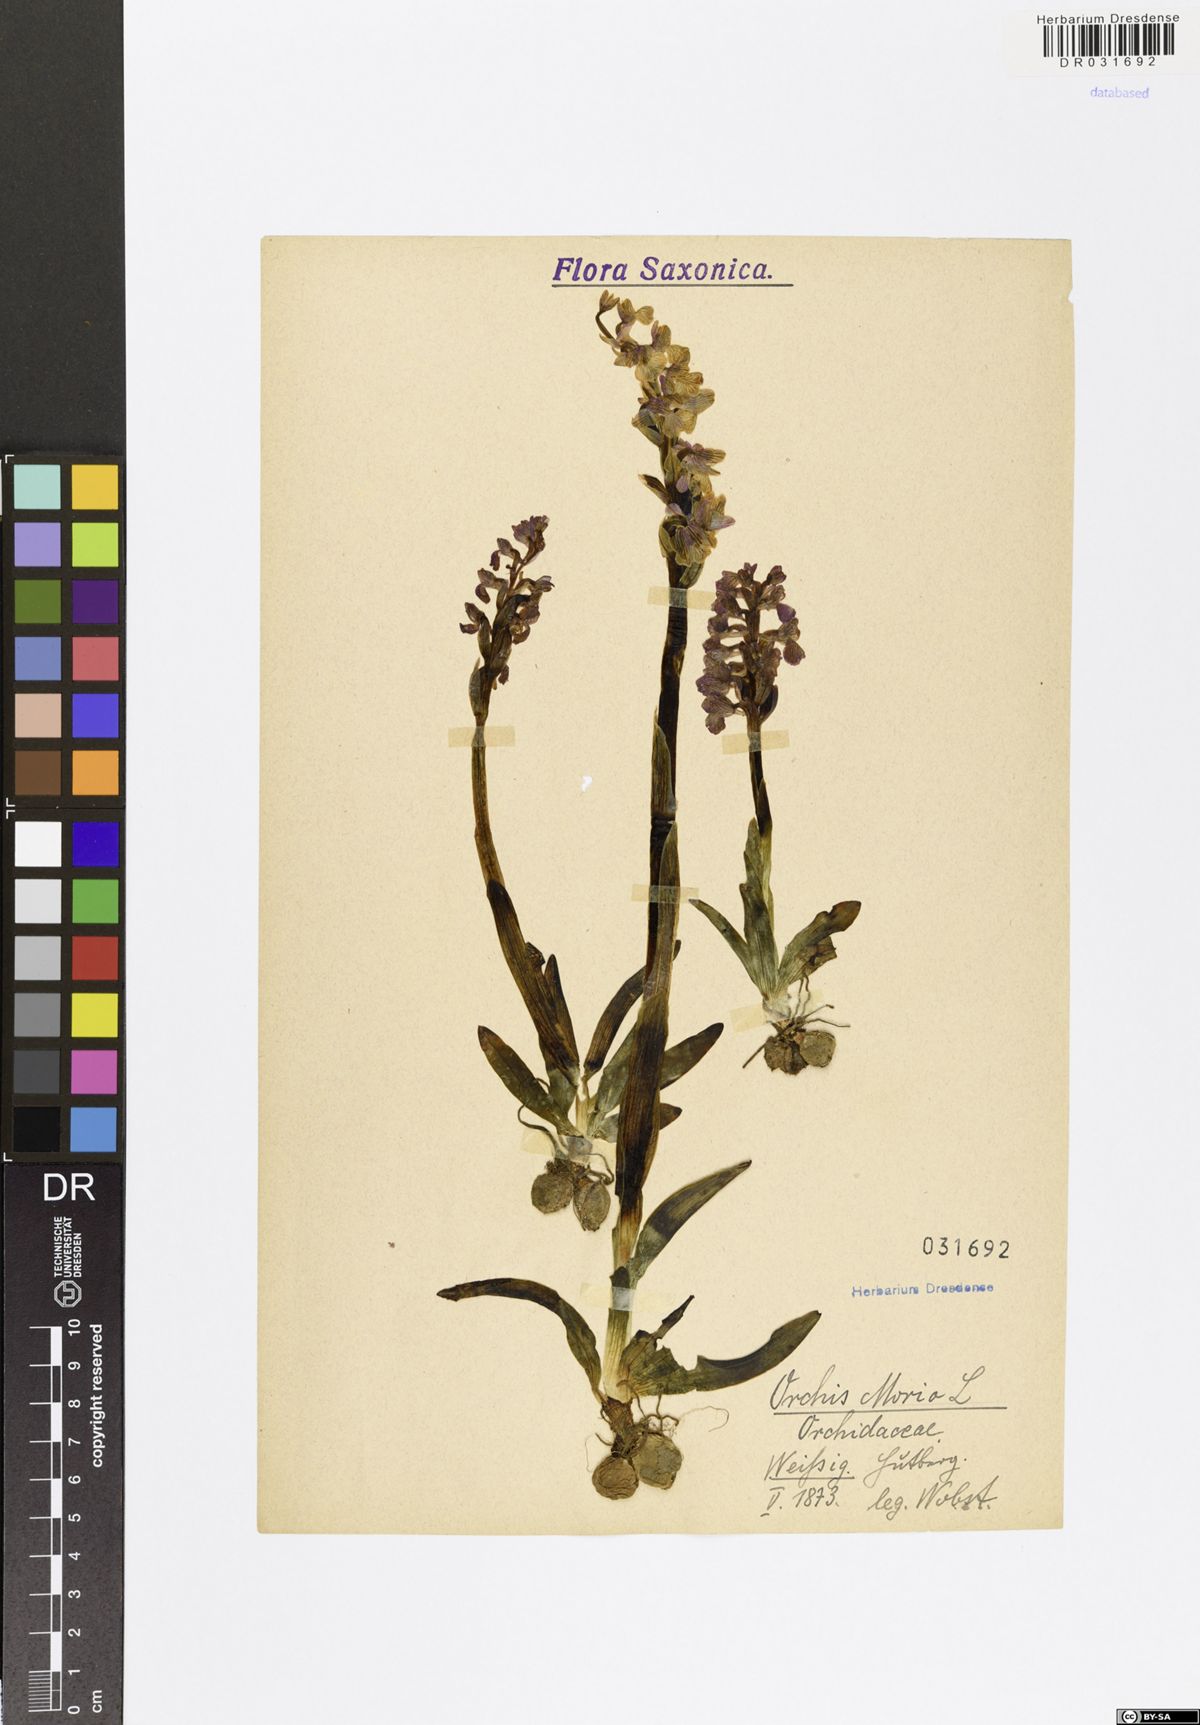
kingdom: Plantae
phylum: Tracheophyta
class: Liliopsida
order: Asparagales
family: Orchidaceae
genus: Anacamptis
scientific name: Anacamptis morio
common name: Green-winged orchid
